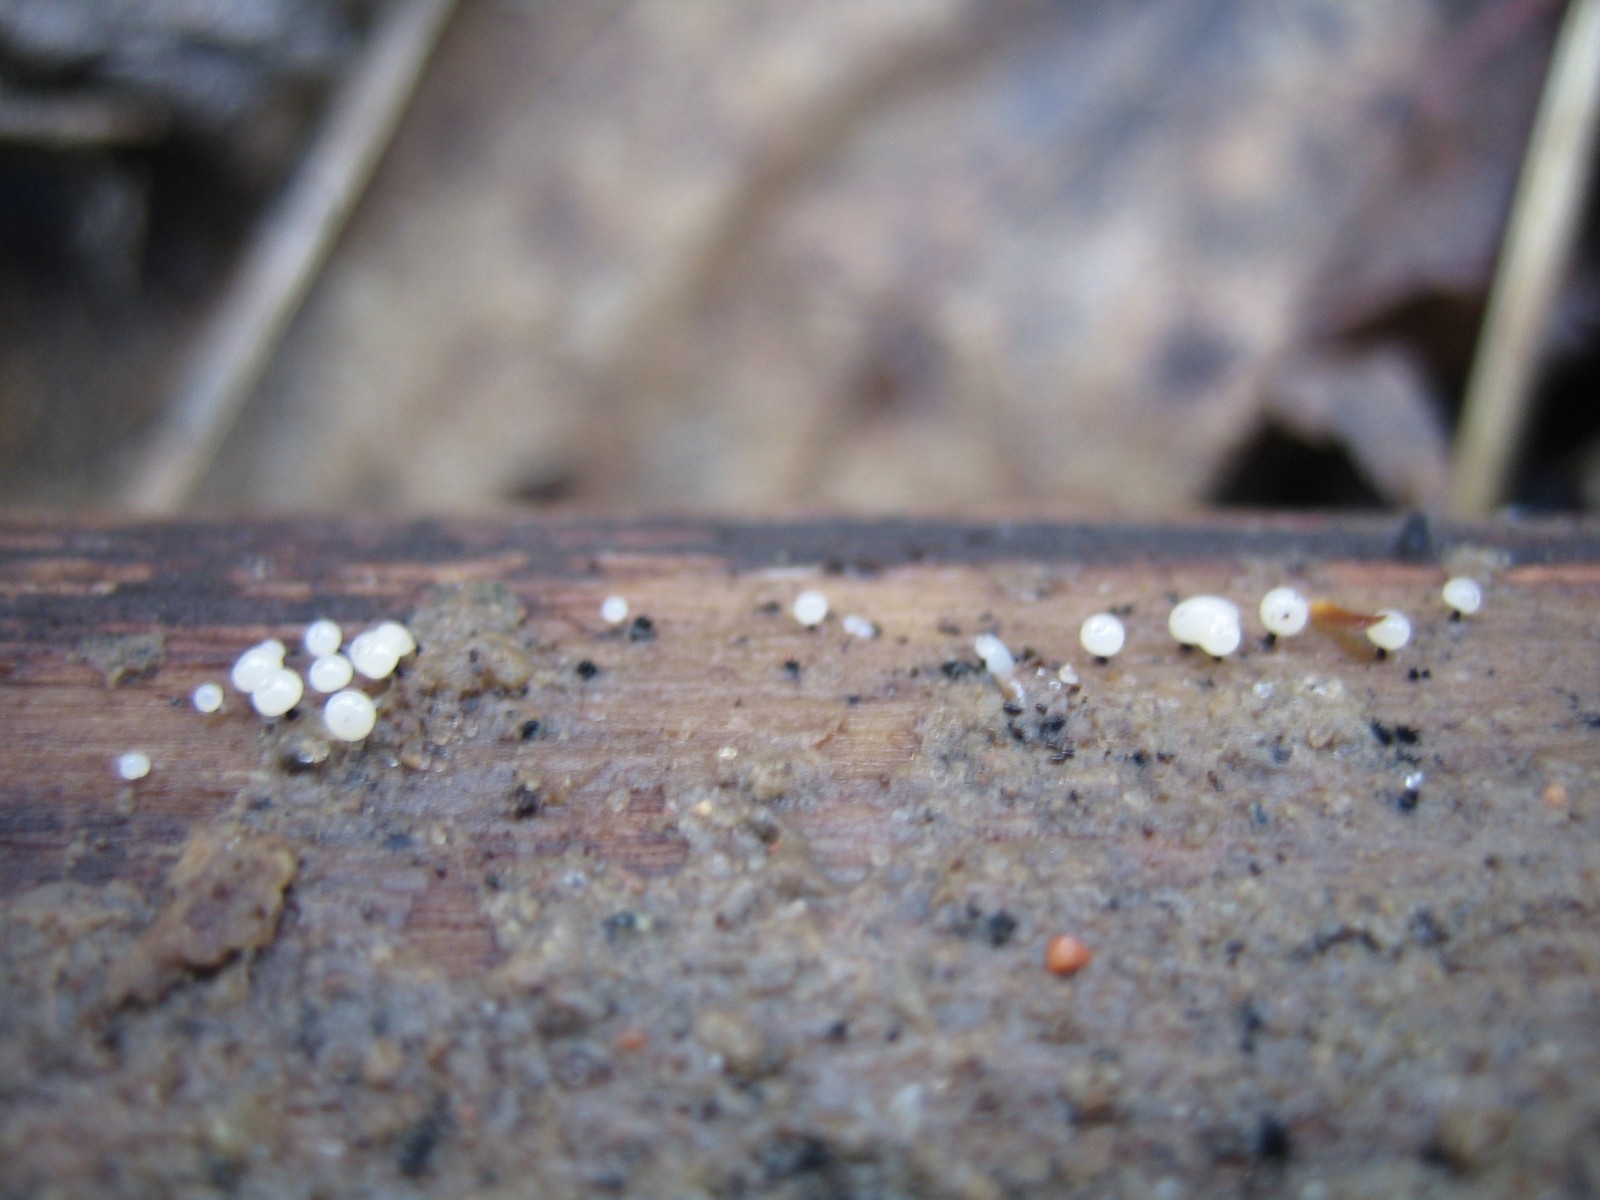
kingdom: Protozoa
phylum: Mycetozoa
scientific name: Mycetozoa
